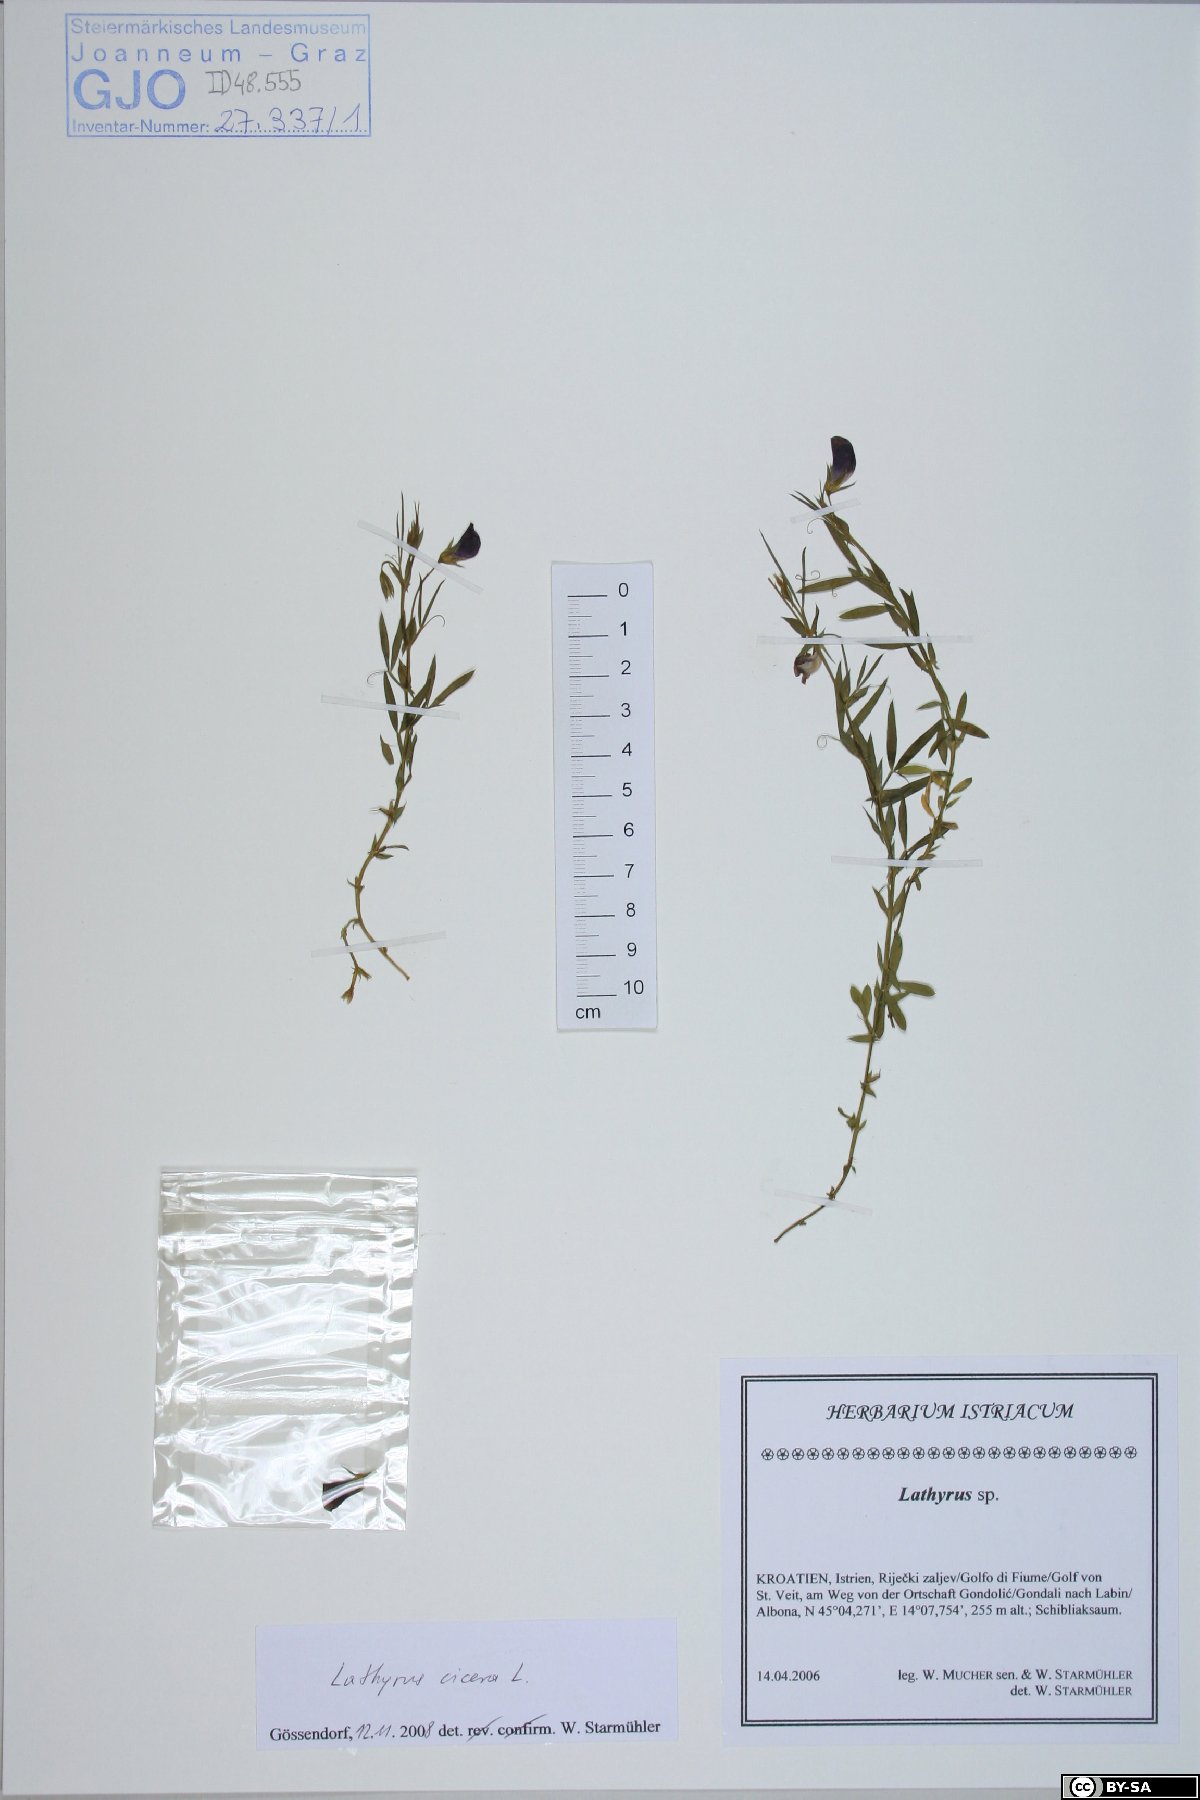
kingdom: Plantae
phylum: Tracheophyta
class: Magnoliopsida
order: Fabales
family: Fabaceae
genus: Lathyrus
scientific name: Lathyrus cicera
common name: Red vetchling
